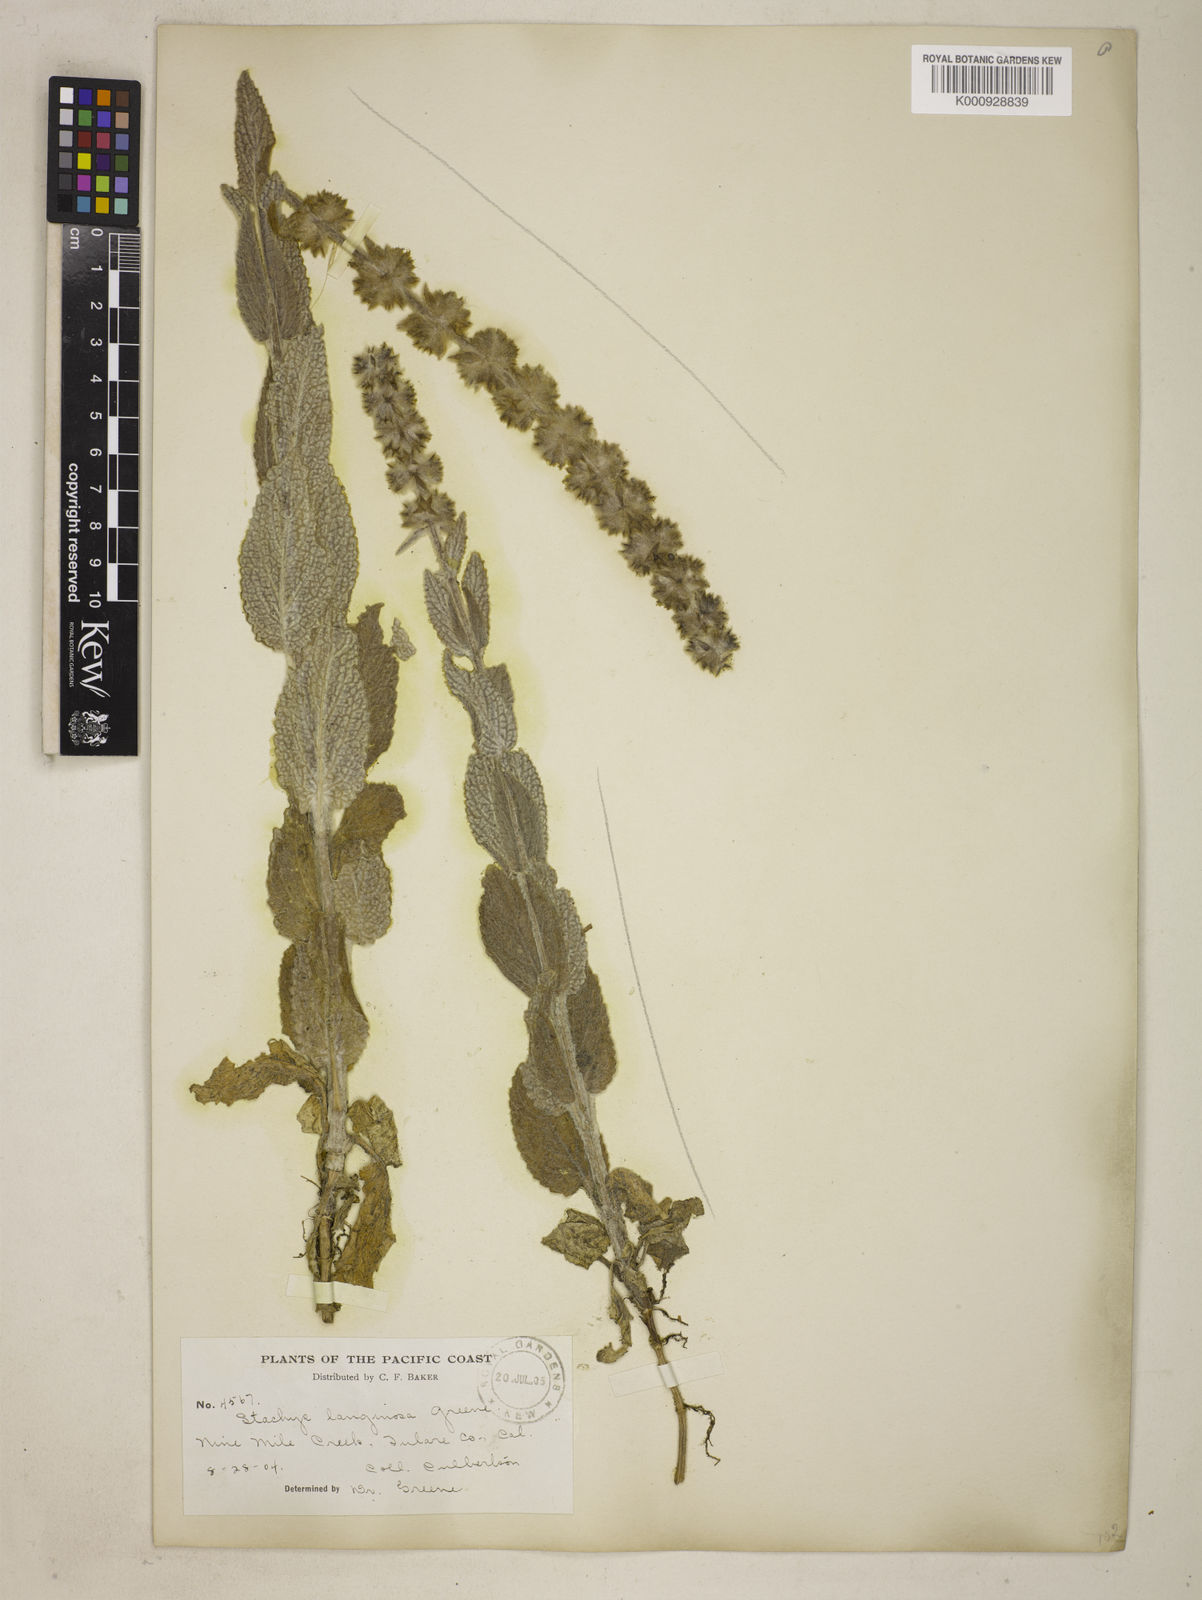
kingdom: Plantae
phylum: Tracheophyta
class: Magnoliopsida
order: Lamiales
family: Lamiaceae
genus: Stachys
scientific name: Stachys albens
